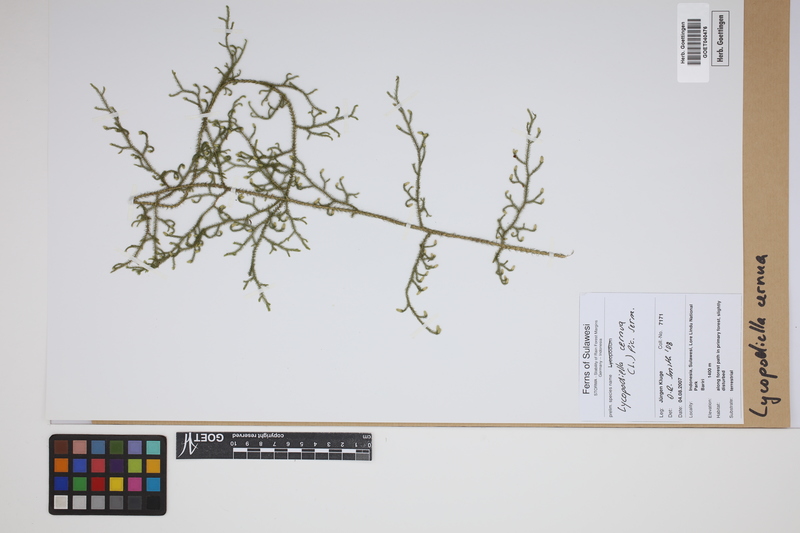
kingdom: Plantae
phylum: Tracheophyta
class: Lycopodiopsida
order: Lycopodiales
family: Lycopodiaceae
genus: Palhinhaea
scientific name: Palhinhaea cernua
